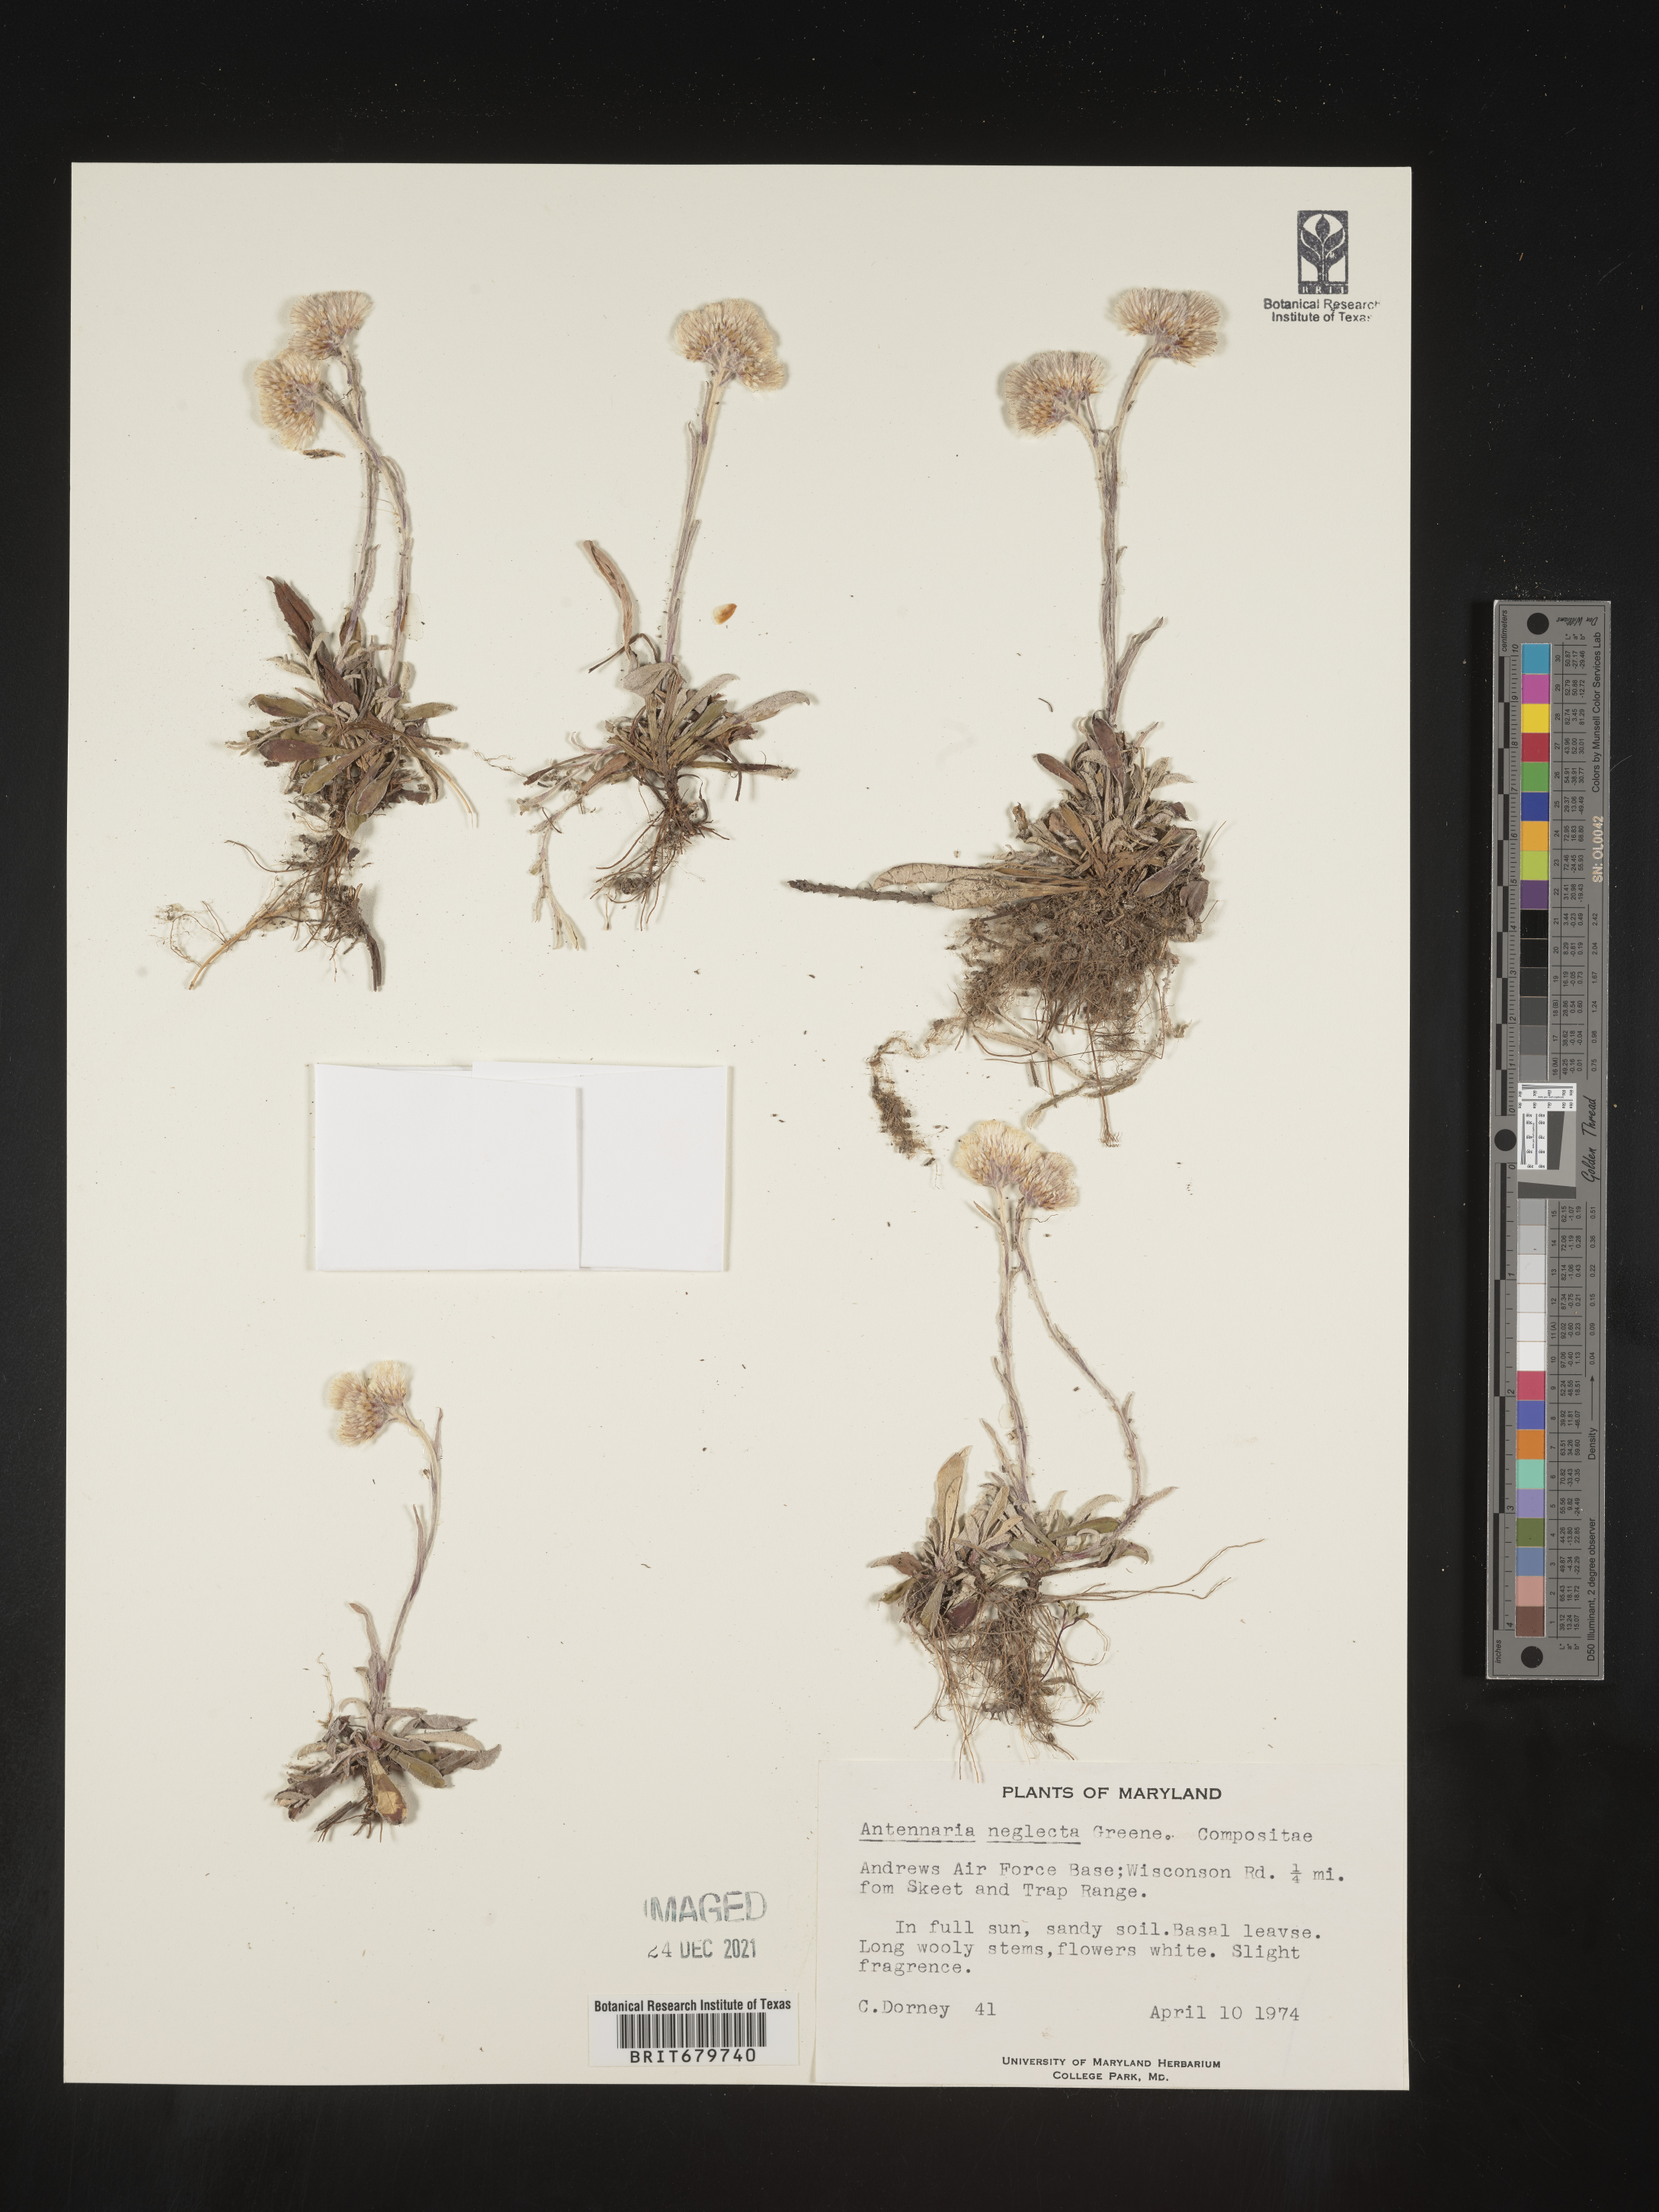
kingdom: Plantae
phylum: Tracheophyta
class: Magnoliopsida
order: Asterales
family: Asteraceae
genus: Antennaria
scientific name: Antennaria neglecta
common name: Field pussytoes
